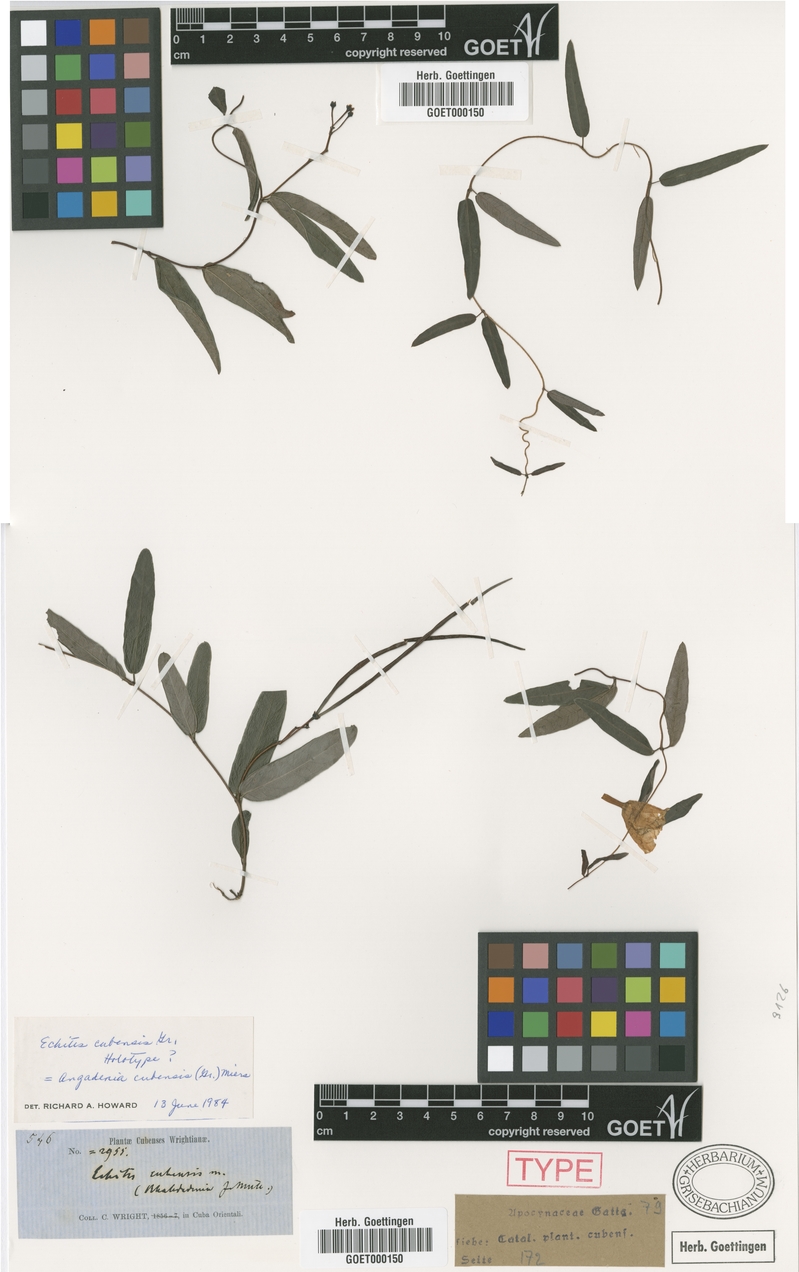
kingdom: Plantae
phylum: Tracheophyta
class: Magnoliopsida
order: Gentianales
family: Apocynaceae
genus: Angadenia
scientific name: Angadenia berteroi
